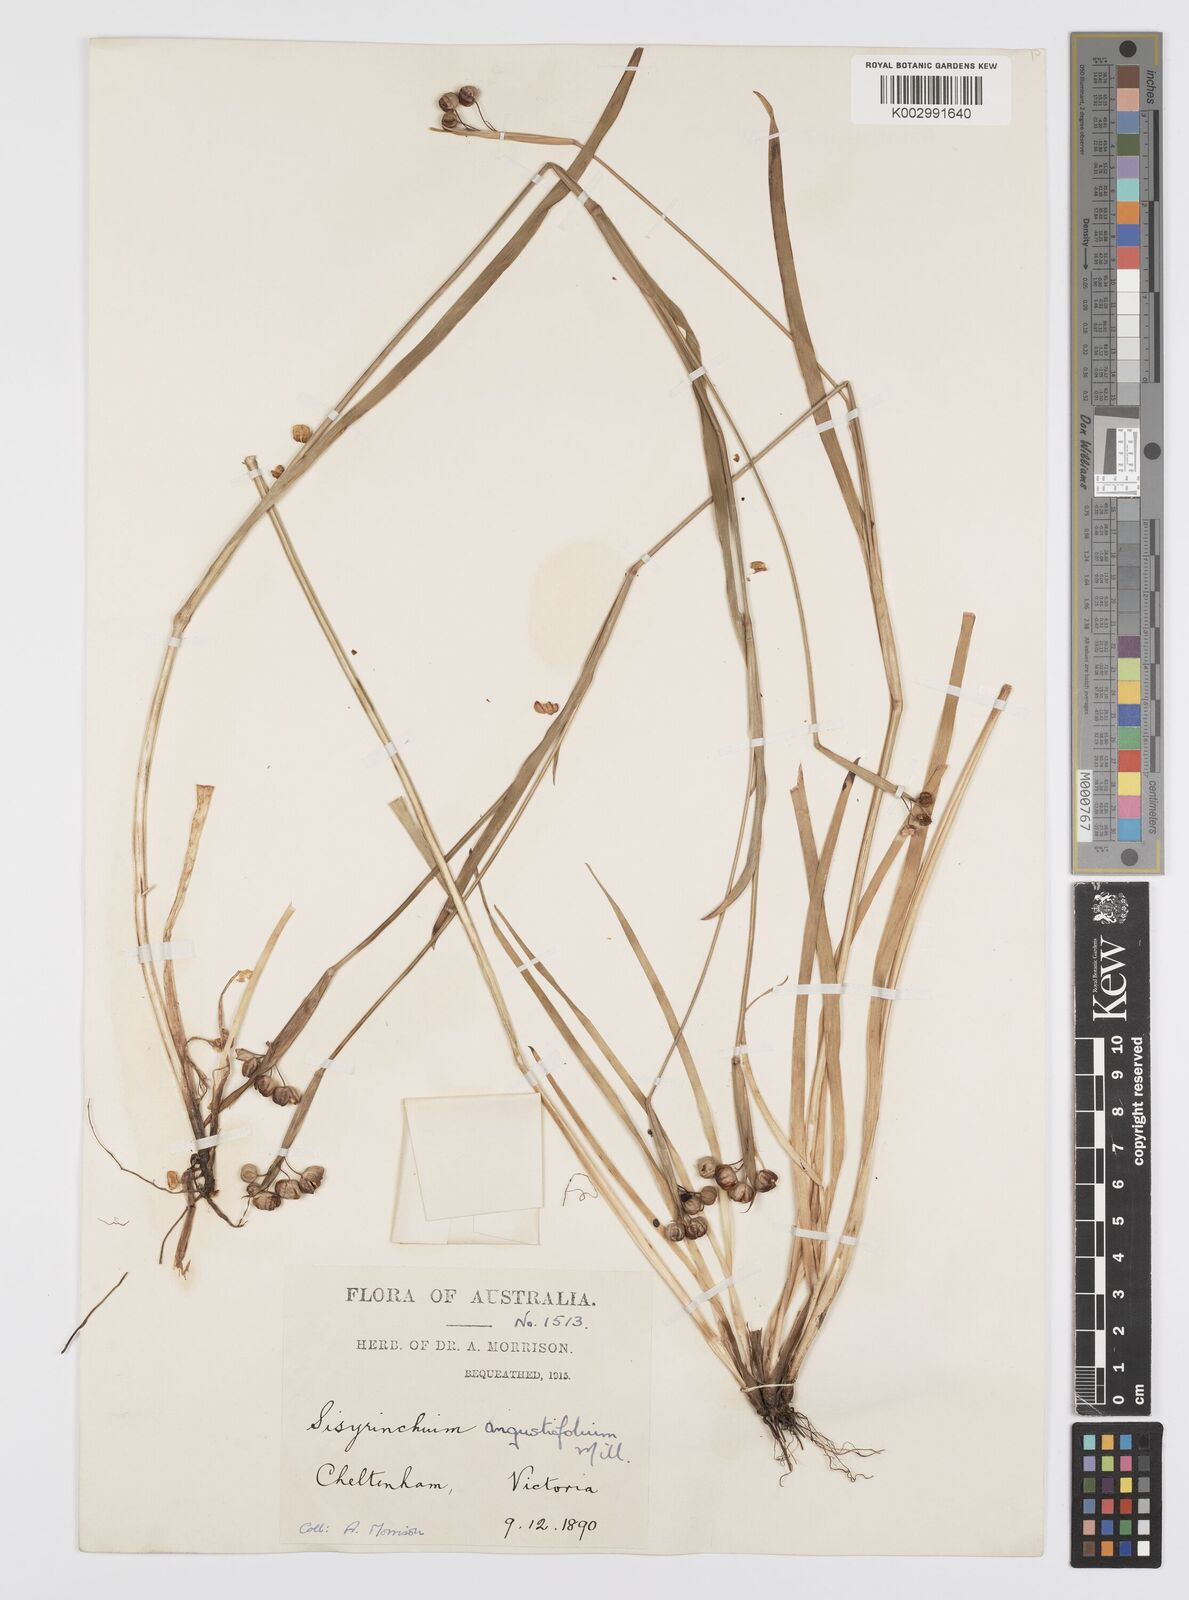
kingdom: Plantae
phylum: Tracheophyta
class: Liliopsida
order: Asparagales
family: Iridaceae
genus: Sisyrinchium
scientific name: Sisyrinchium angustifolium
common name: Narrow-leaf blue-eyed-grass
